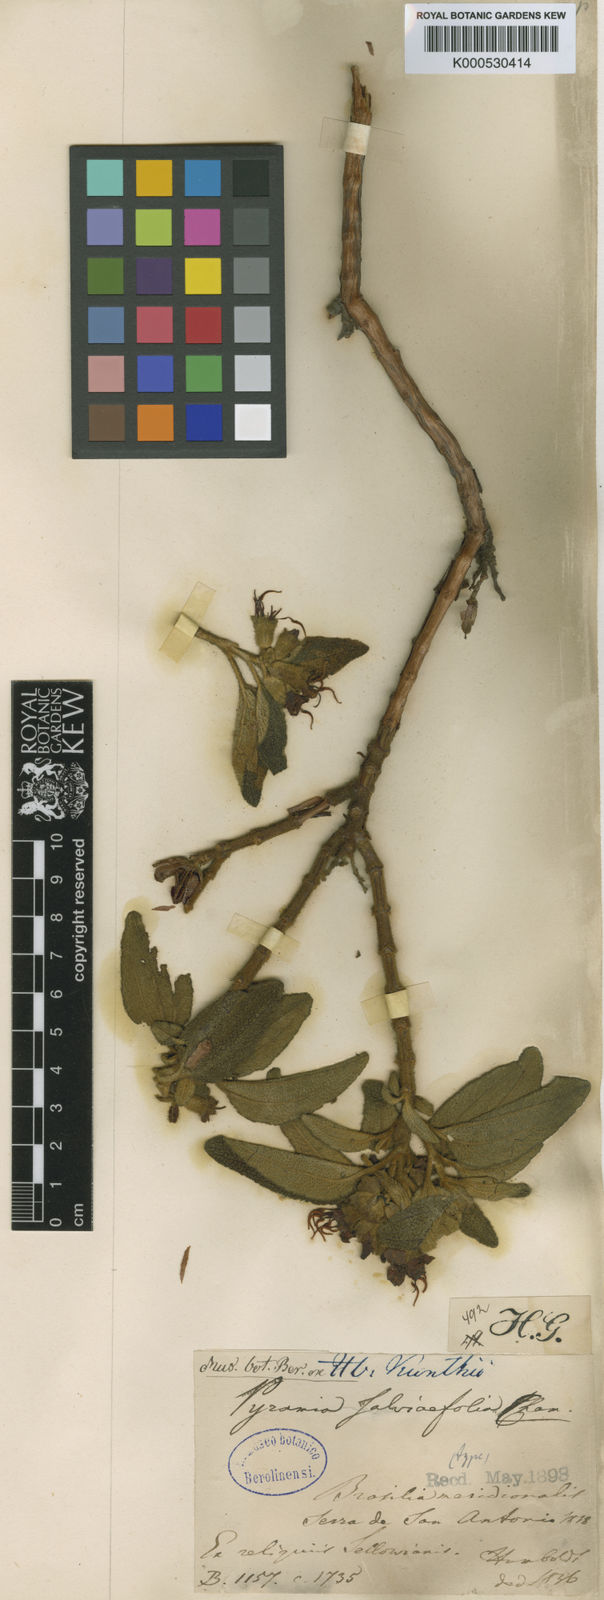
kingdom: Plantae
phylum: Tracheophyta
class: Magnoliopsida
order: Myrtales
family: Melastomataceae
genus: Cambessedesia
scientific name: Cambessedesia salviifolia
